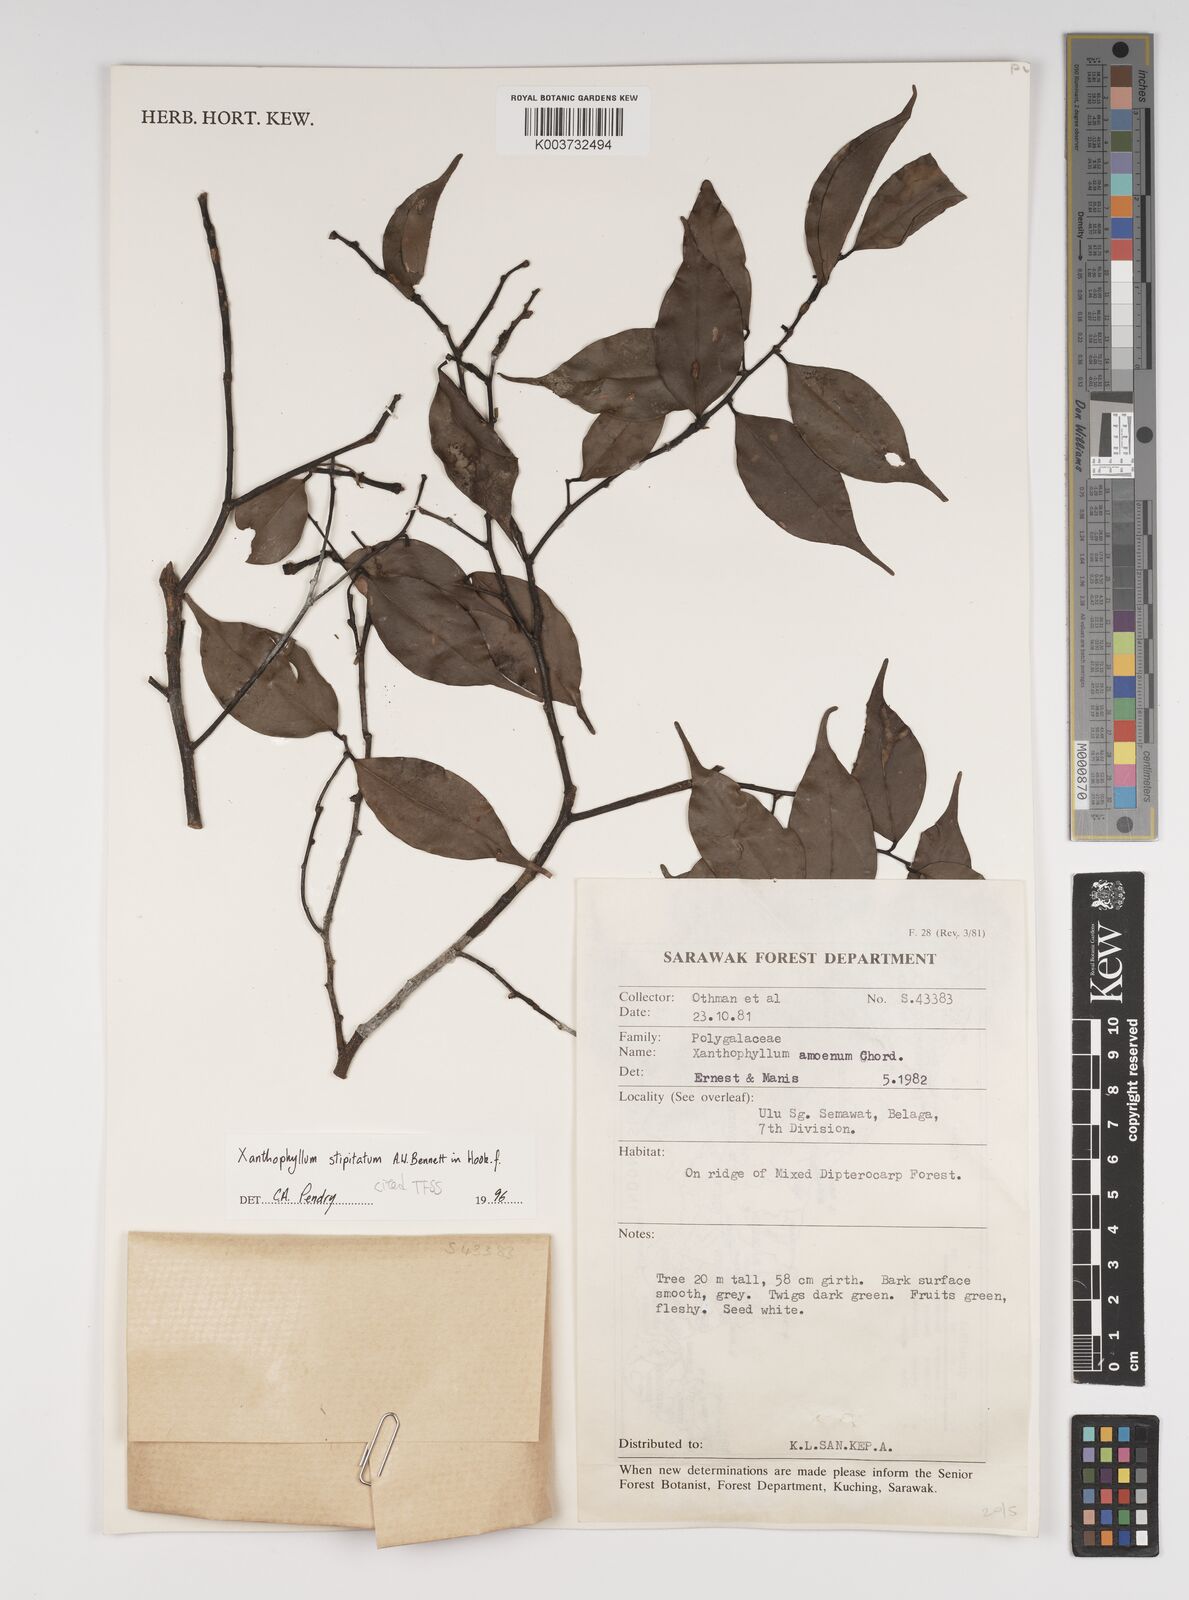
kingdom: Plantae
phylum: Tracheophyta
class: Magnoliopsida
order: Fabales
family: Polygalaceae
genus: Xanthophyllum
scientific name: Xanthophyllum stipitatum
